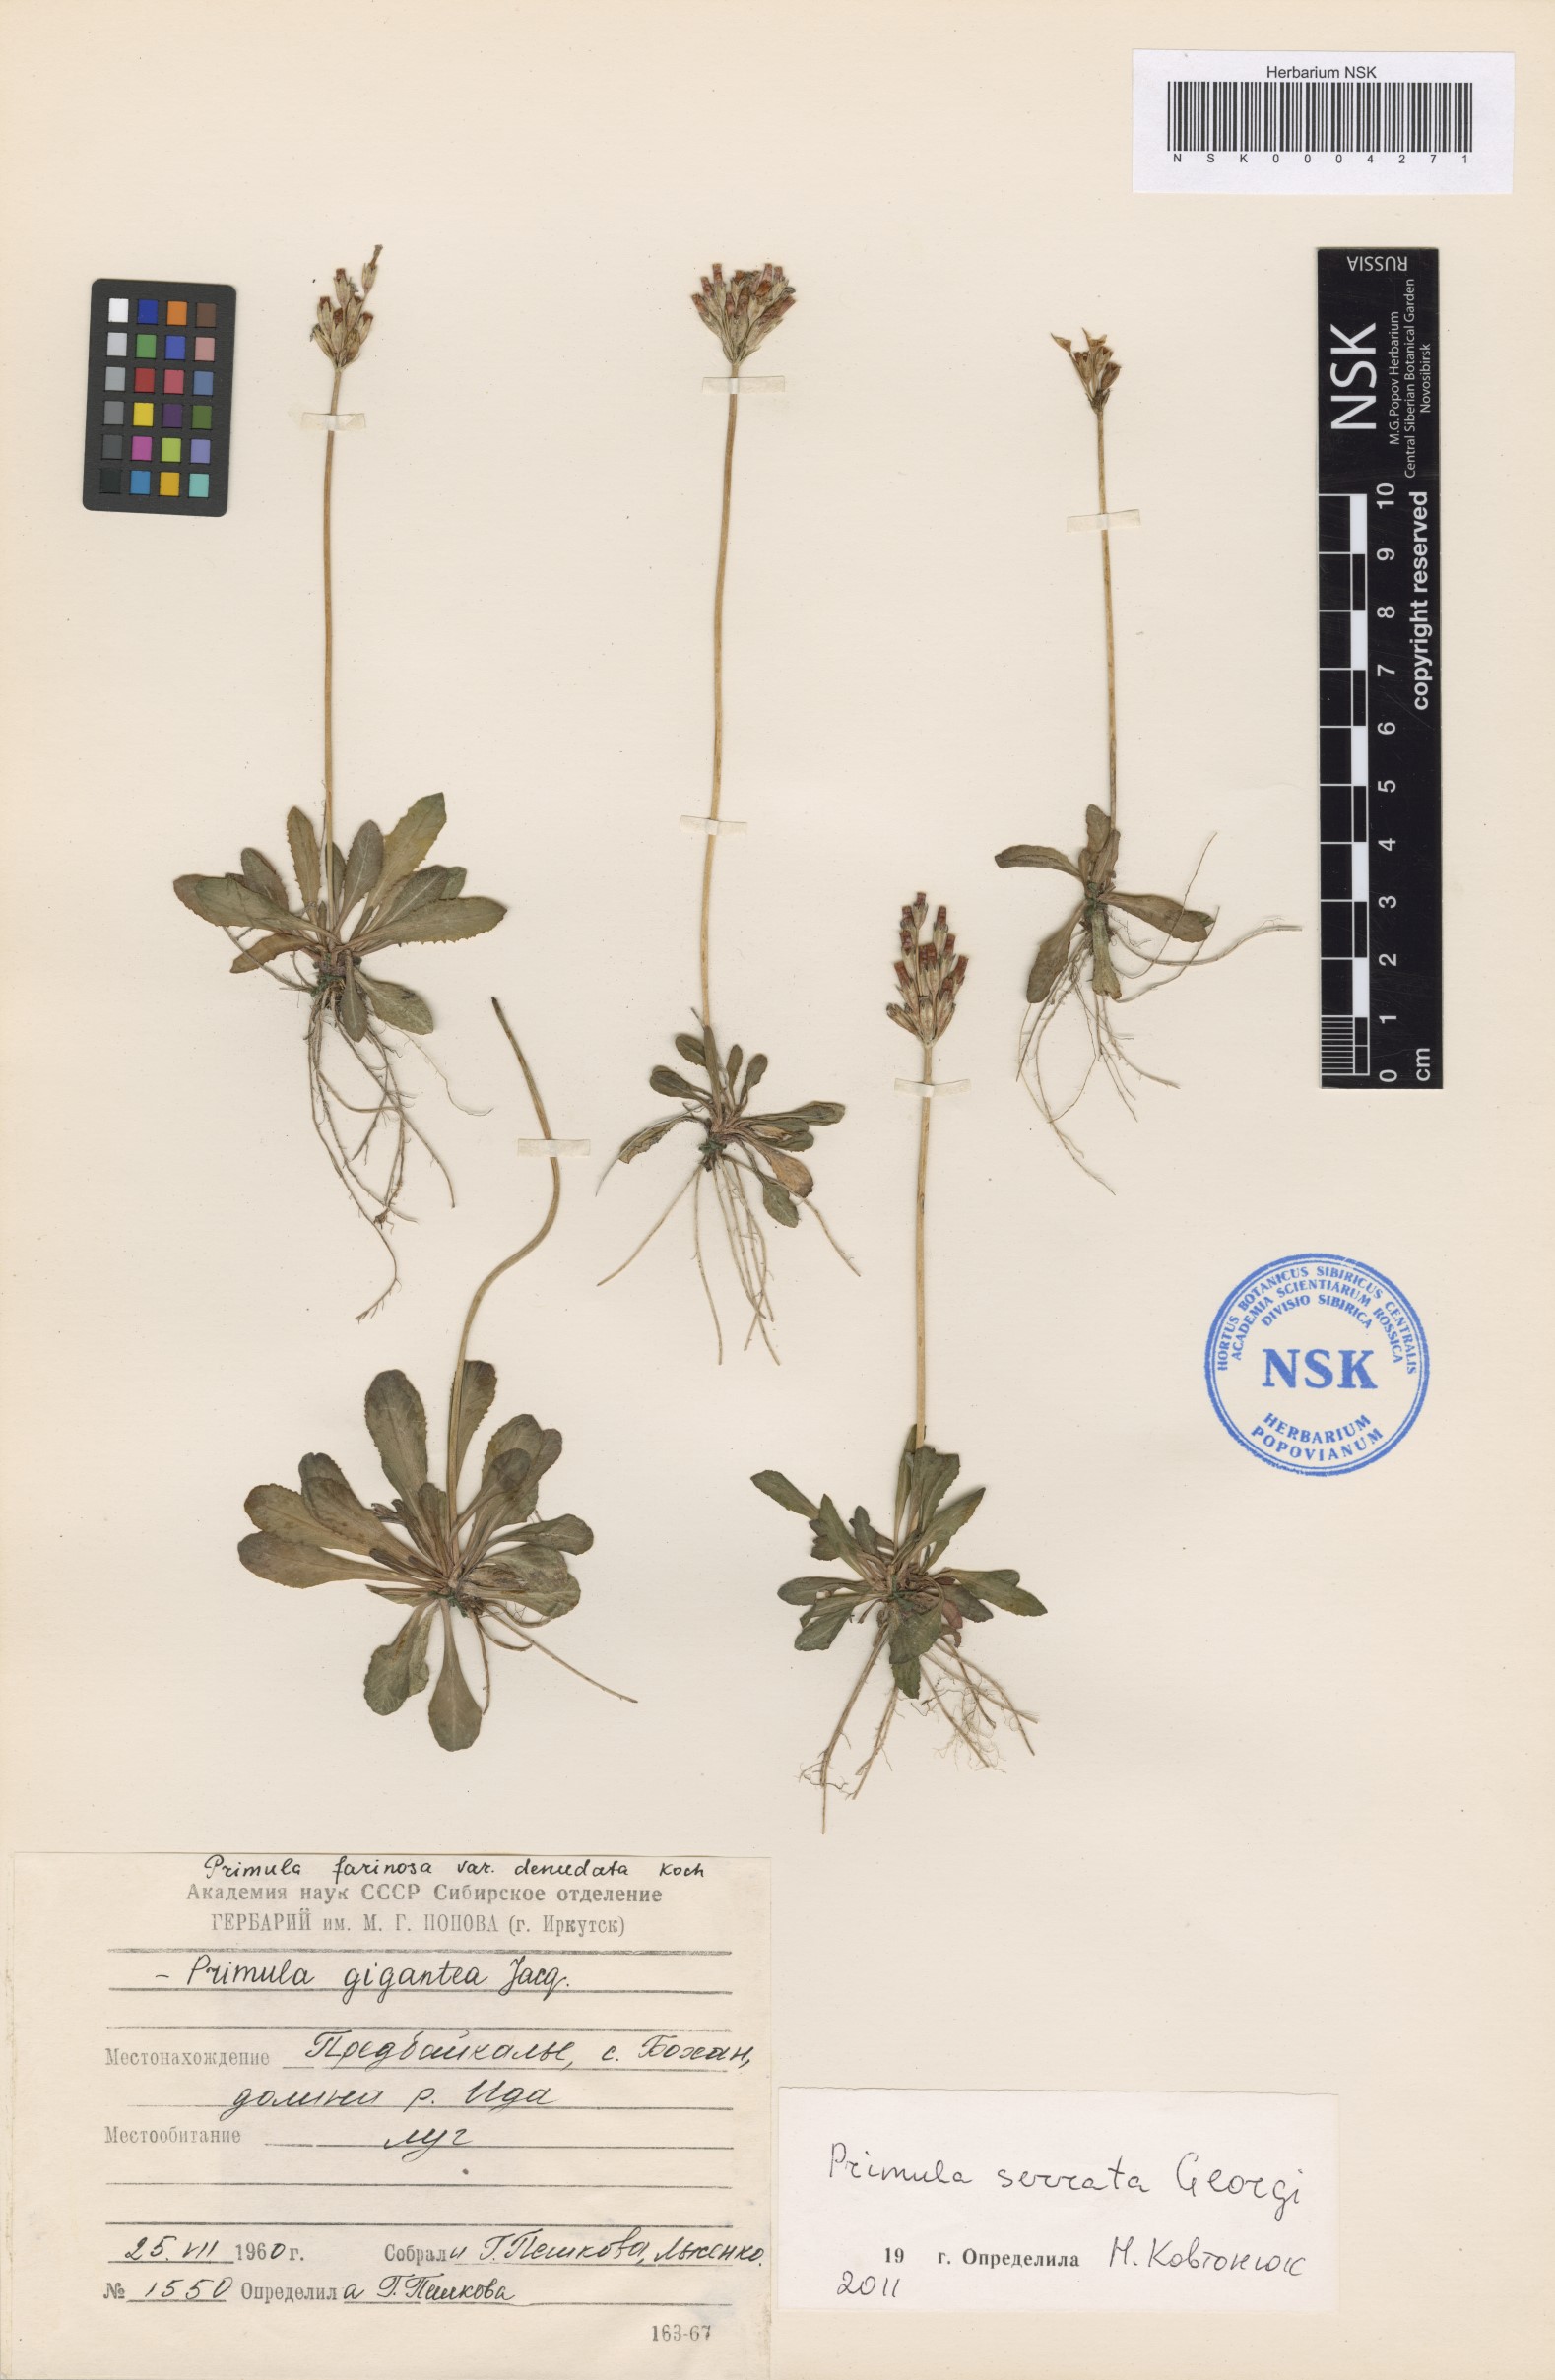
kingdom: Plantae
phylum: Tracheophyta
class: Magnoliopsida
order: Ericales
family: Primulaceae
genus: Primula
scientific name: Primula serrata
